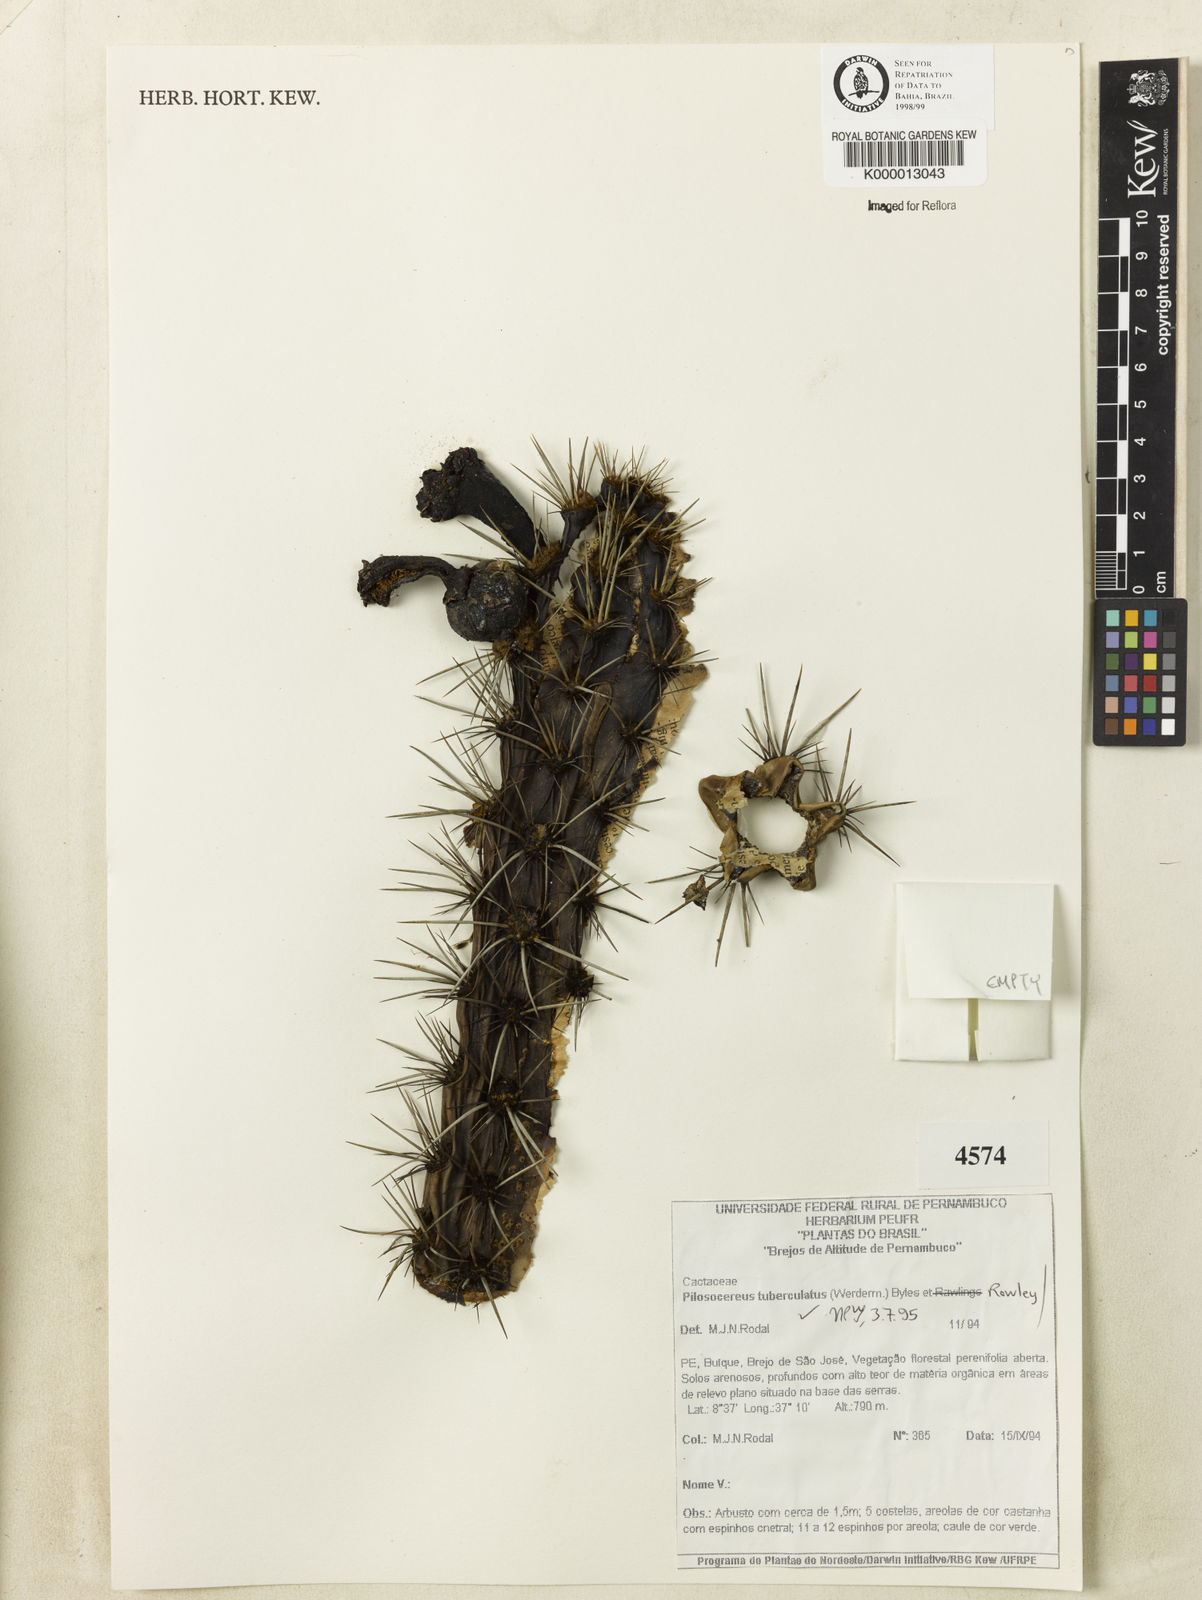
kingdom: Plantae
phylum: Tracheophyta
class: Magnoliopsida
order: Caryophyllales
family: Cactaceae
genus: Xiquexique
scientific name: Xiquexique tuberculatus
